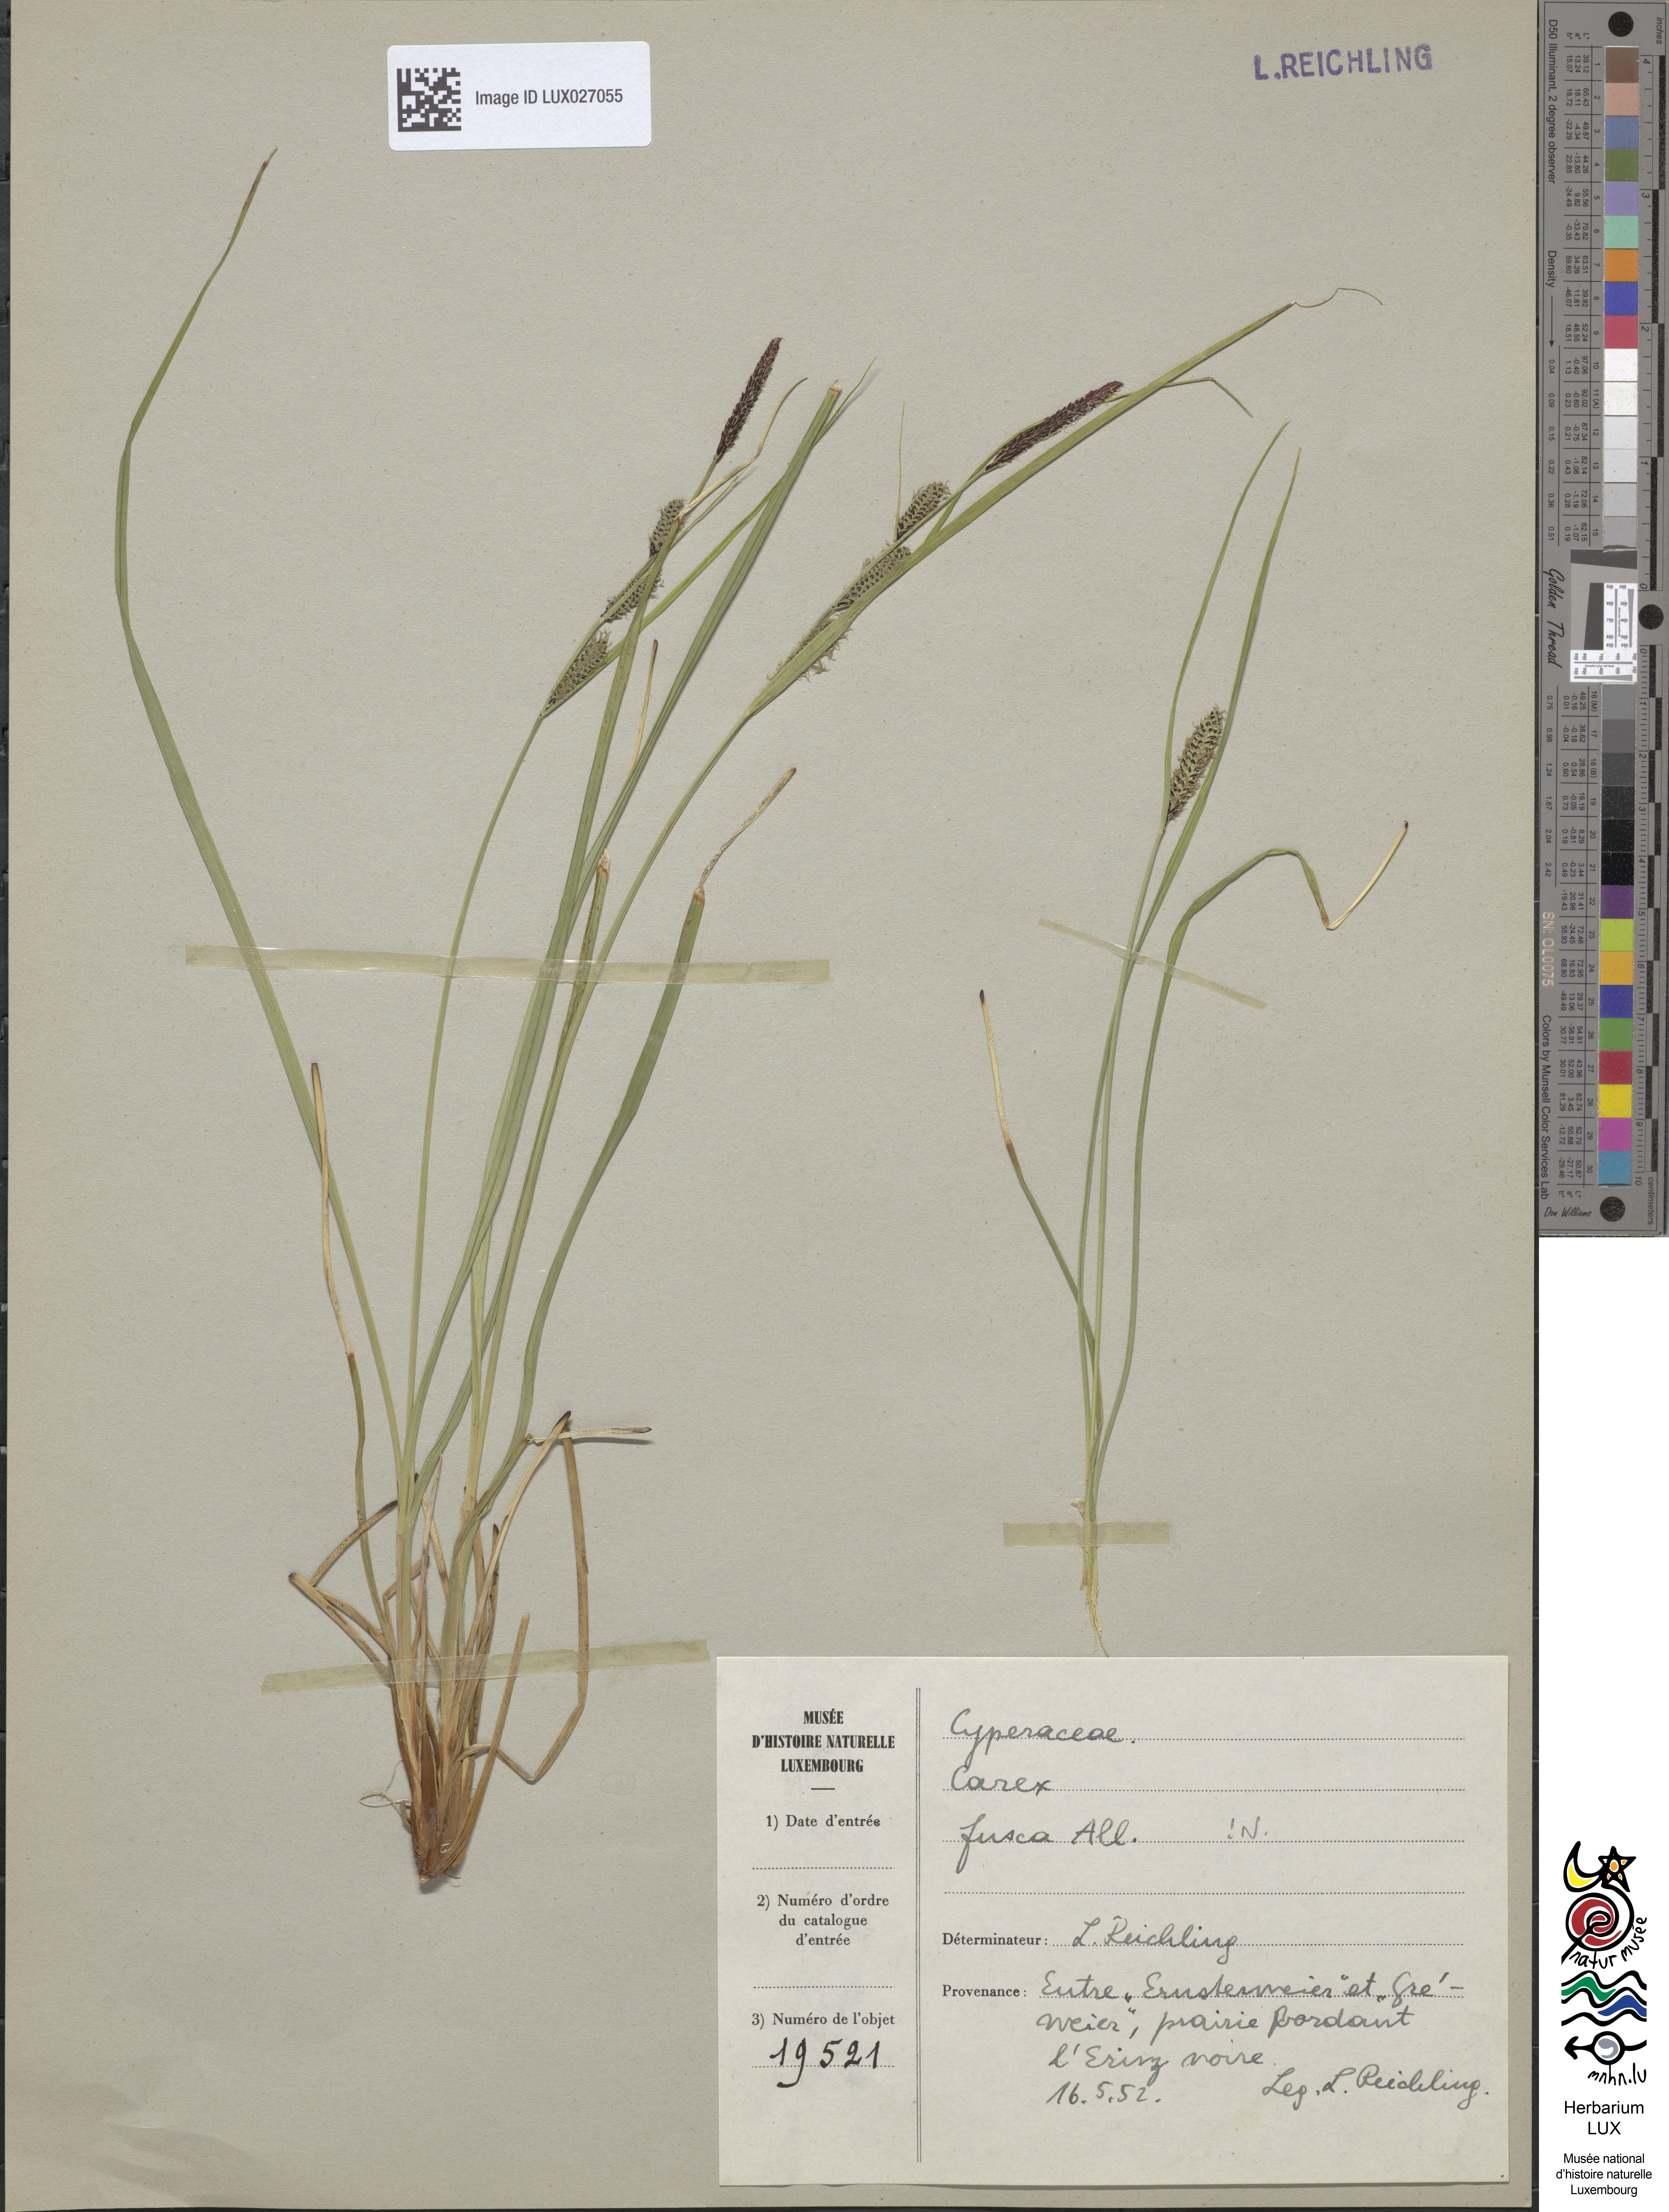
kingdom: Plantae
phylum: Tracheophyta
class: Liliopsida
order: Poales
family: Cyperaceae
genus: Carex
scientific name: Carex nigra
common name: Common sedge
